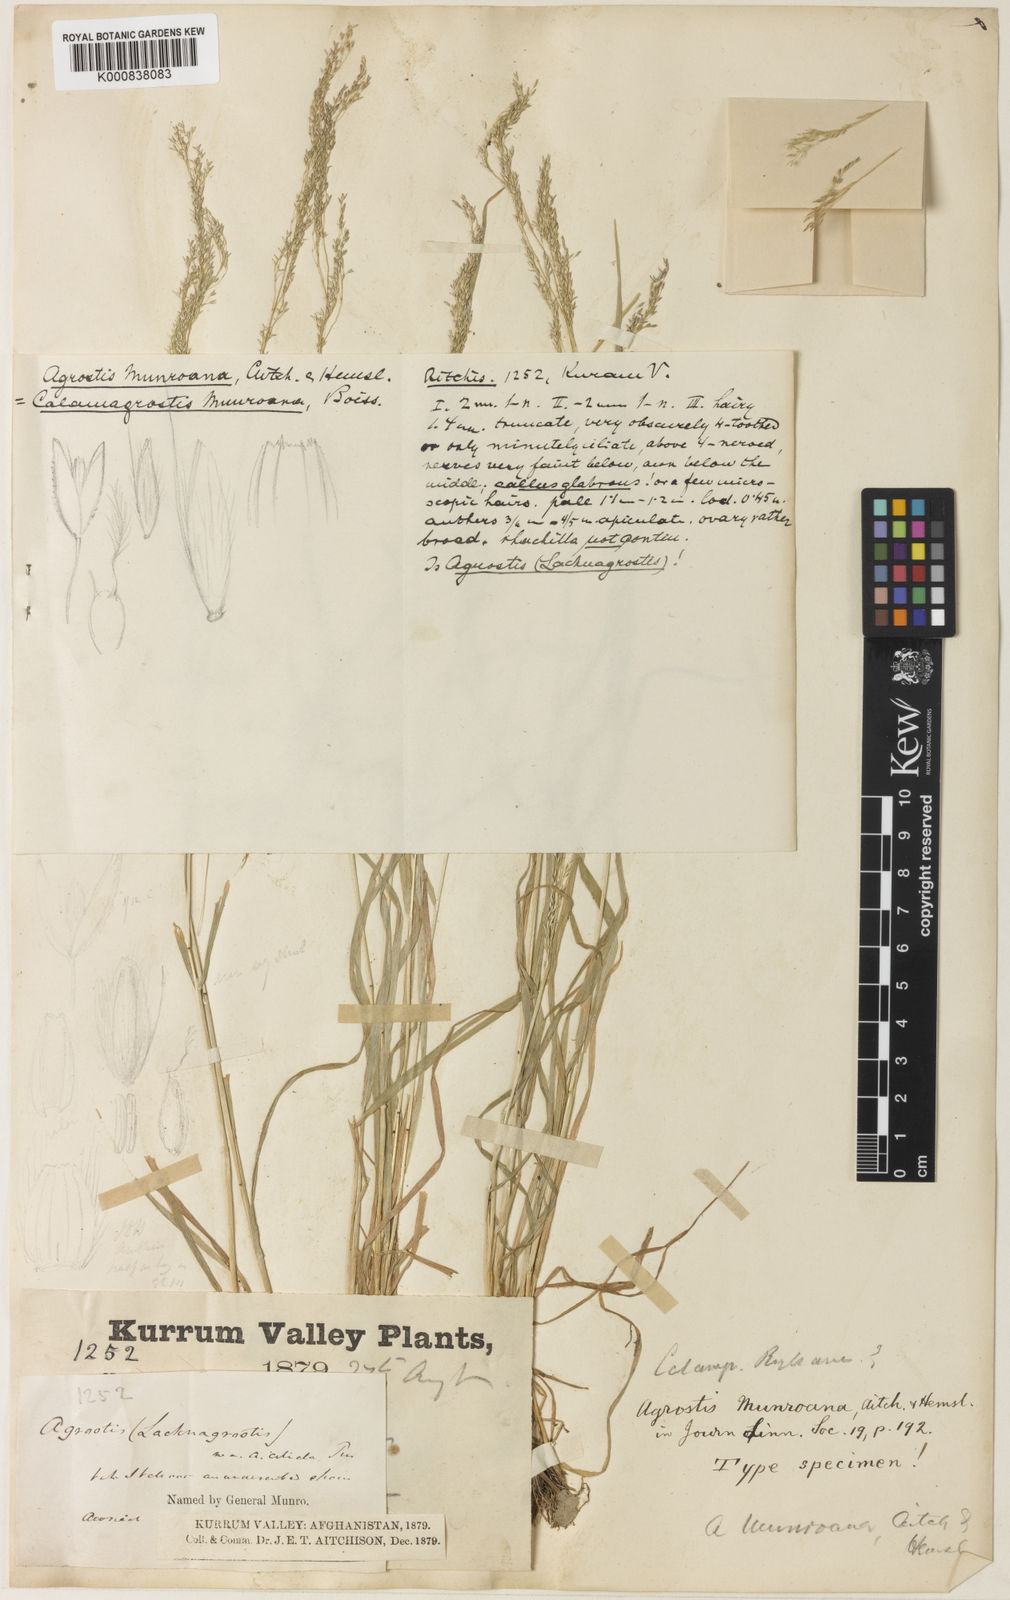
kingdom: Plantae
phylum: Tracheophyta
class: Liliopsida
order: Poales
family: Poaceae
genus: Agrostis
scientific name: Agrostis munroana
